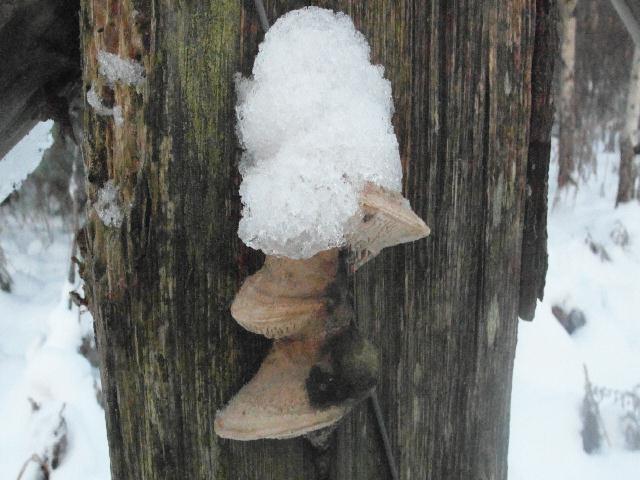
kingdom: Fungi
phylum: Basidiomycota
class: Agaricomycetes
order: Polyporales
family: Fomitopsidaceae
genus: Daedalea
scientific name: Daedalea quercina
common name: ege-labyrintsvamp
